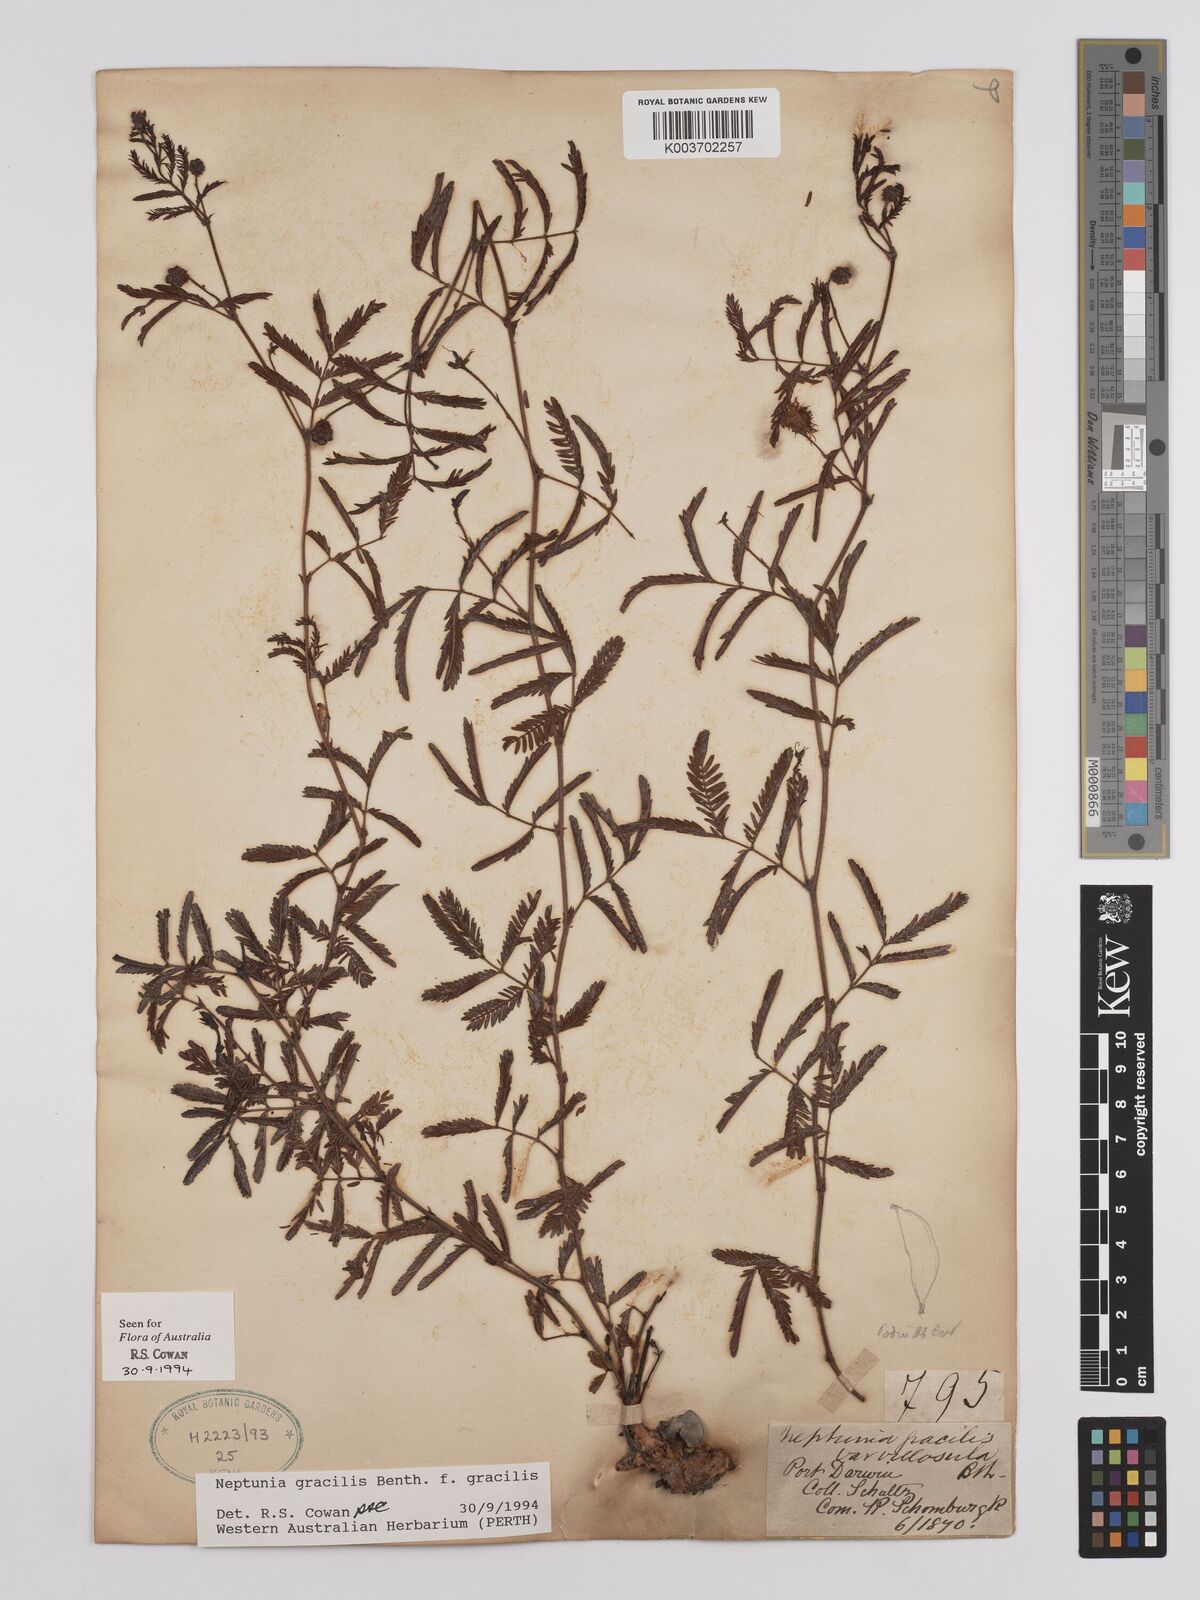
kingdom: Plantae
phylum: Tracheophyta
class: Magnoliopsida
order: Fabales
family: Fabaceae
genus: Neptunia
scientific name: Neptunia gracilis
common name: Sensitive-plant
